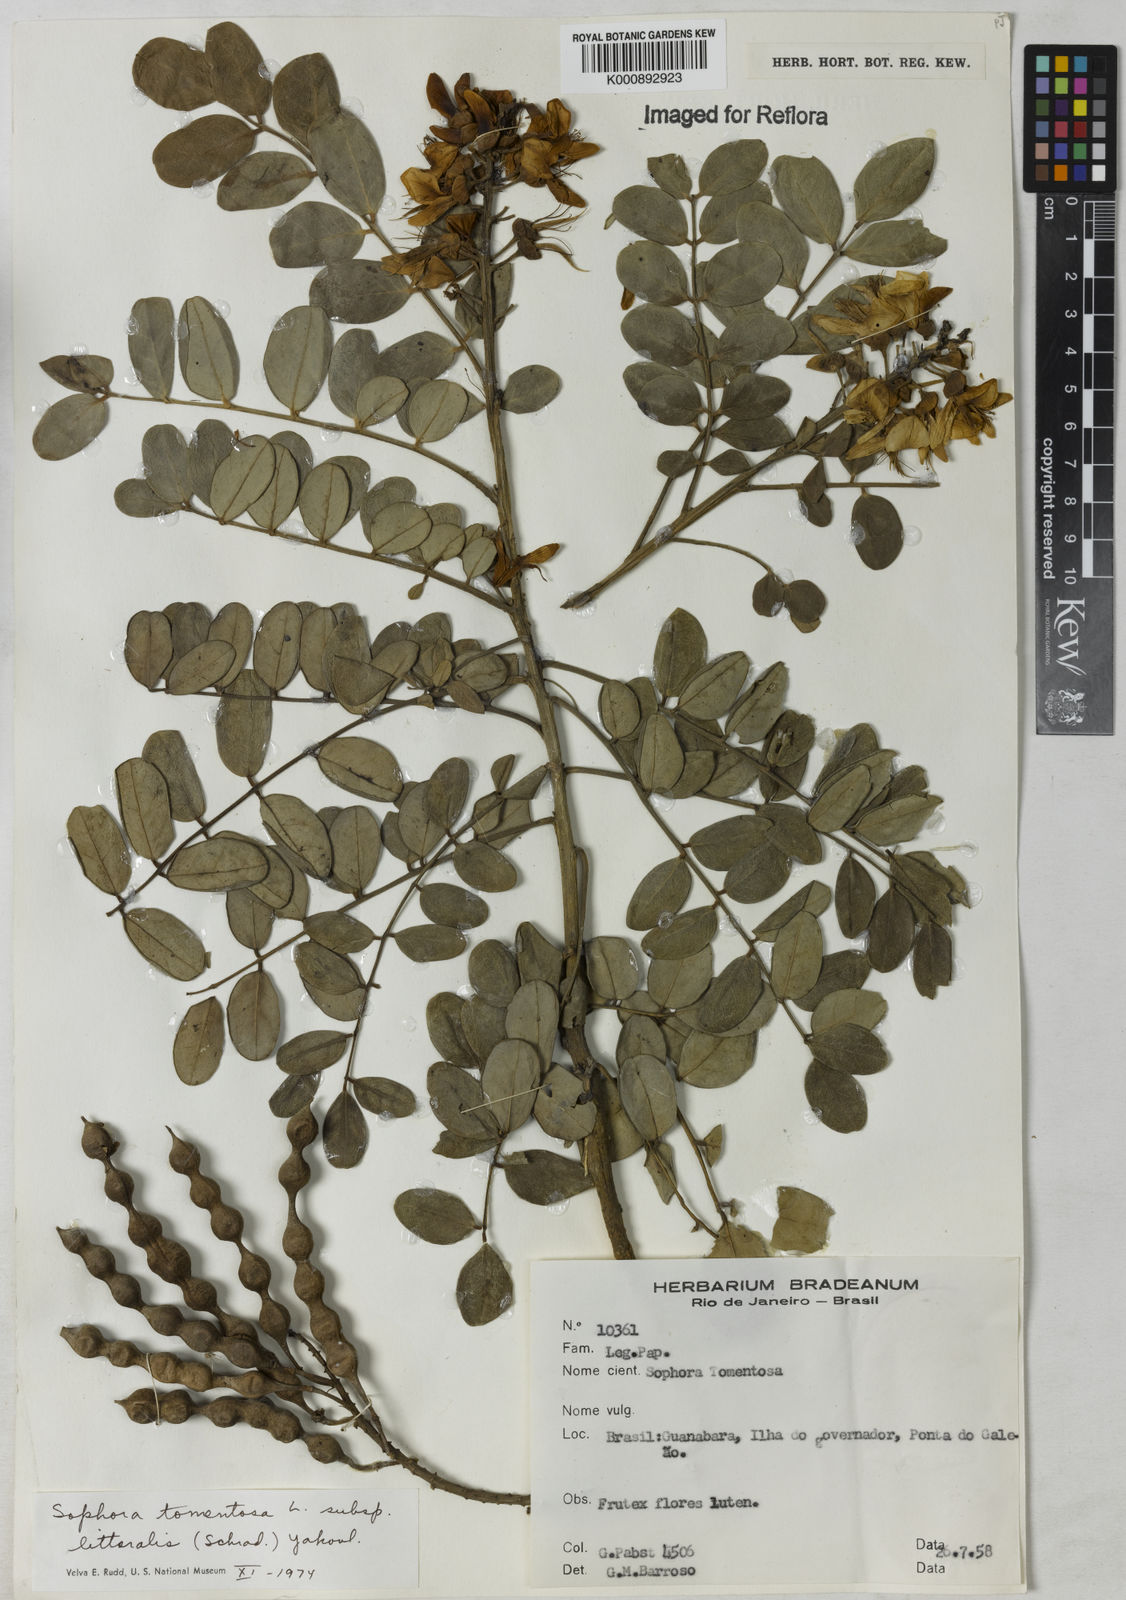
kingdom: Plantae
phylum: Tracheophyta
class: Magnoliopsida
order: Fabales
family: Fabaceae
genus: Sophora
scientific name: Sophora tomentosa
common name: Yellow necklacepod
